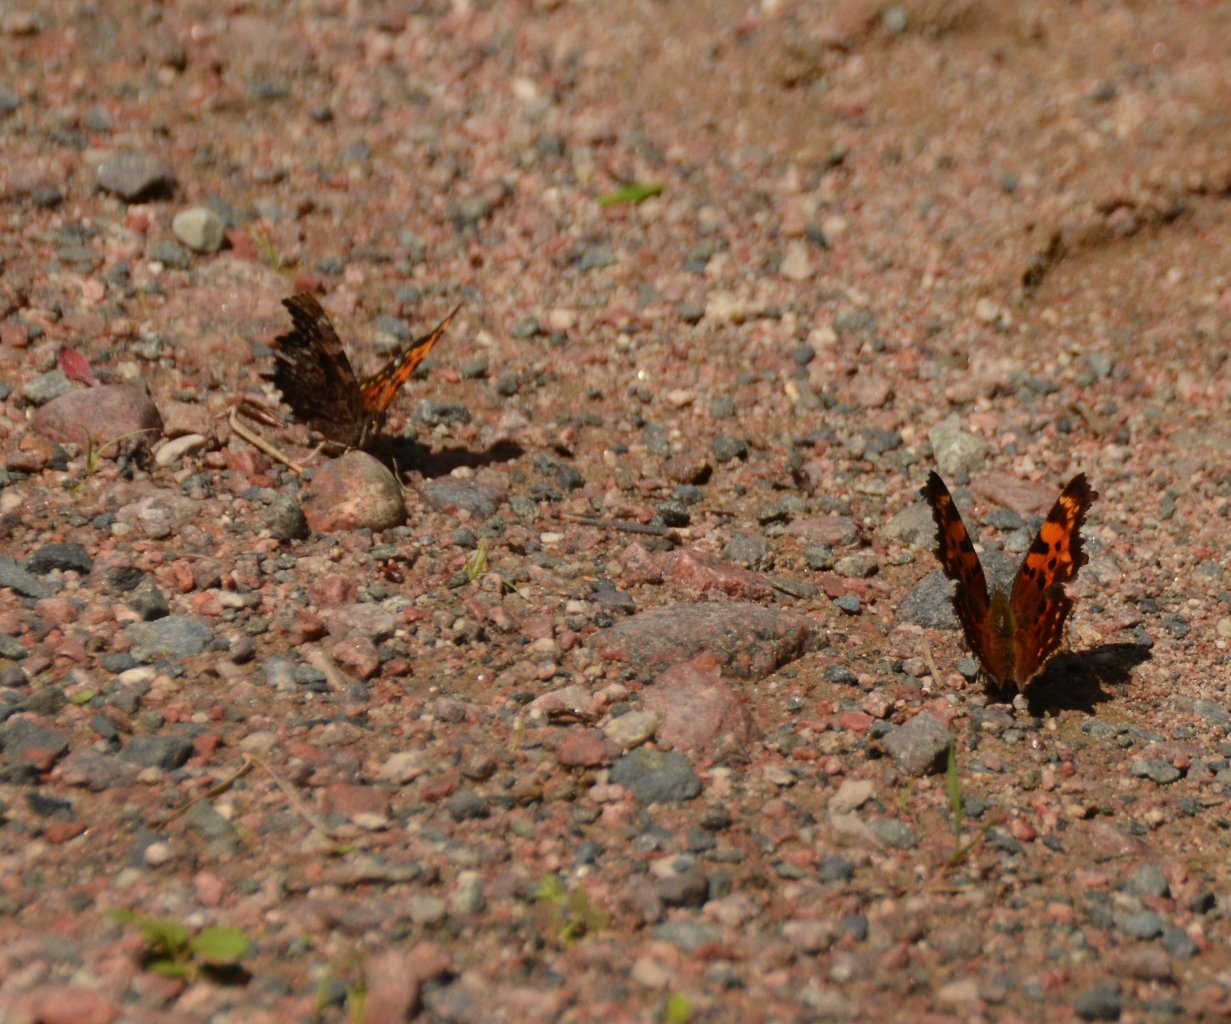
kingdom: Animalia
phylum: Arthropoda
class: Insecta
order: Lepidoptera
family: Nymphalidae
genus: Polygonia
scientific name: Polygonia faunus
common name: Green Comma
